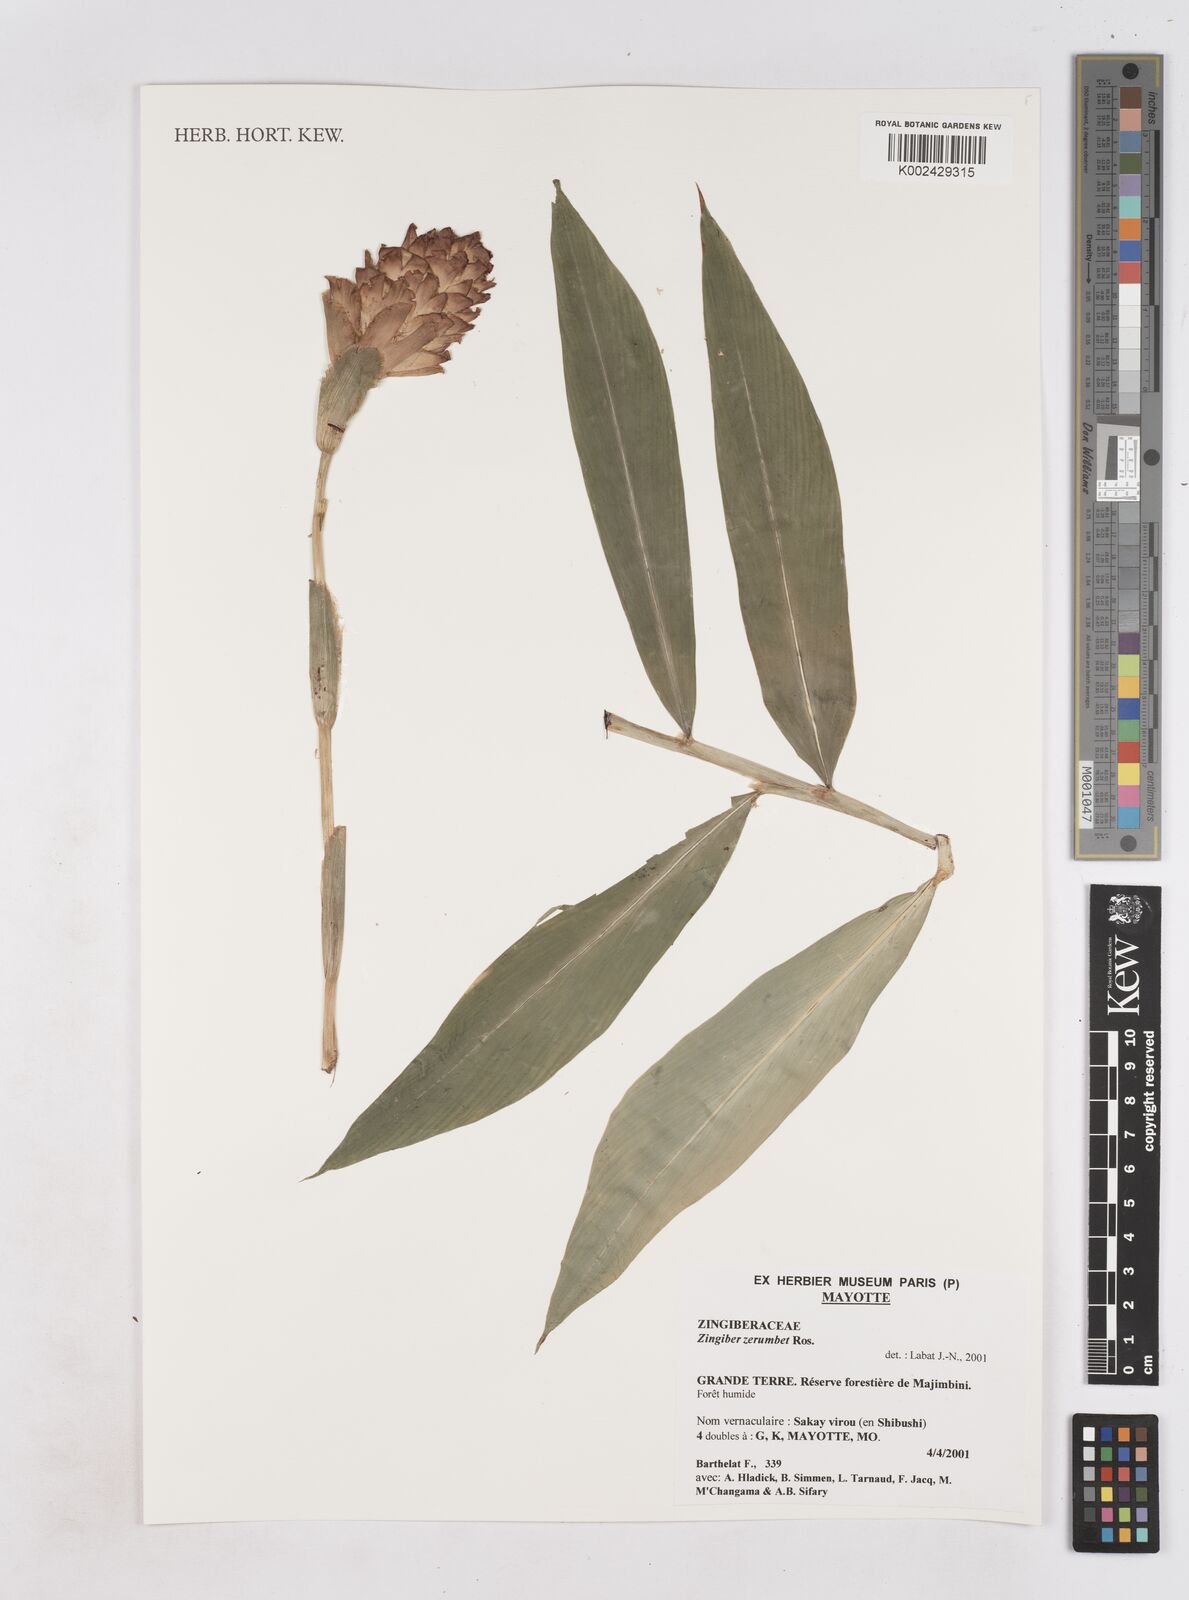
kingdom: Plantae
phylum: Tracheophyta
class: Liliopsida
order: Zingiberales
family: Zingiberaceae
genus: Zingiber
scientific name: Zingiber zerumbet
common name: Bitter ginger
